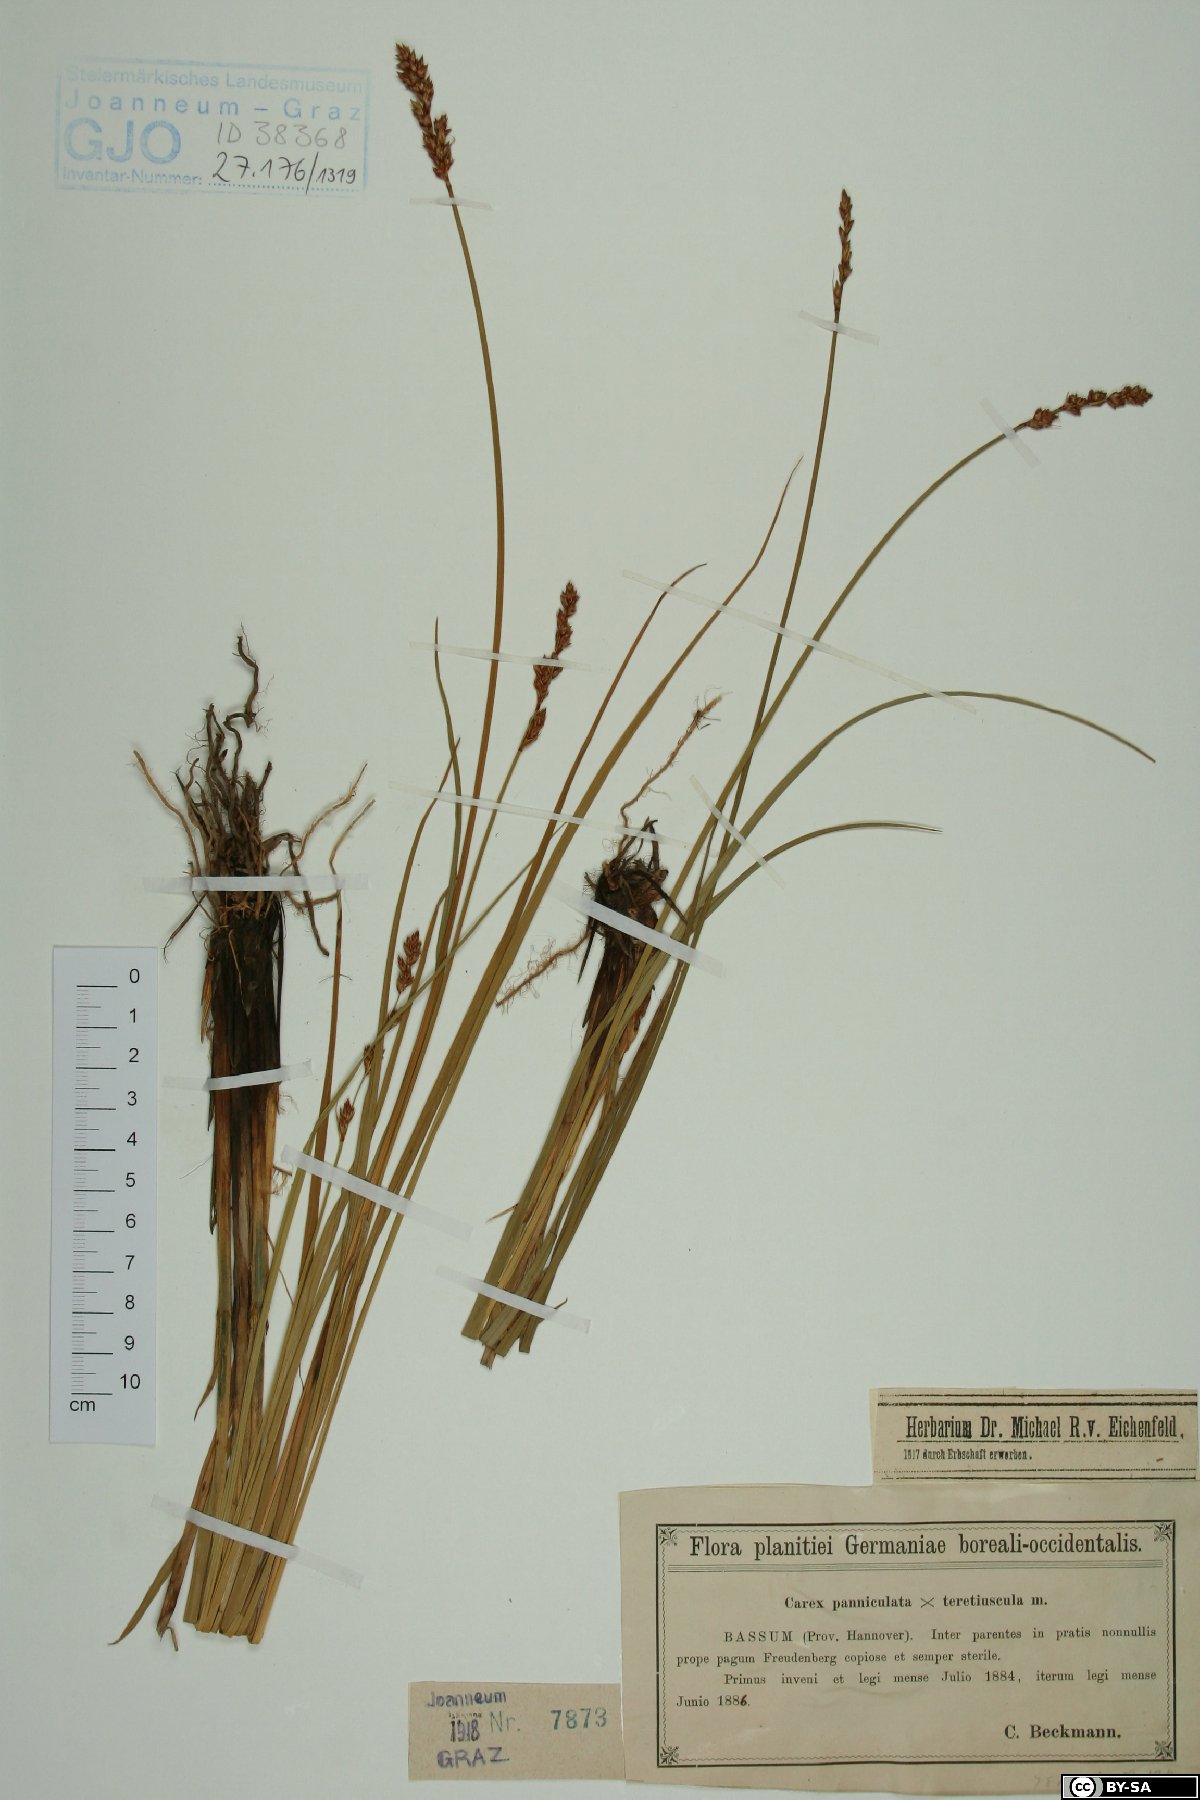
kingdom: Plantae
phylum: Tracheophyta
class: Liliopsida
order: Poales
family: Cyperaceae
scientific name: Cyperaceae
